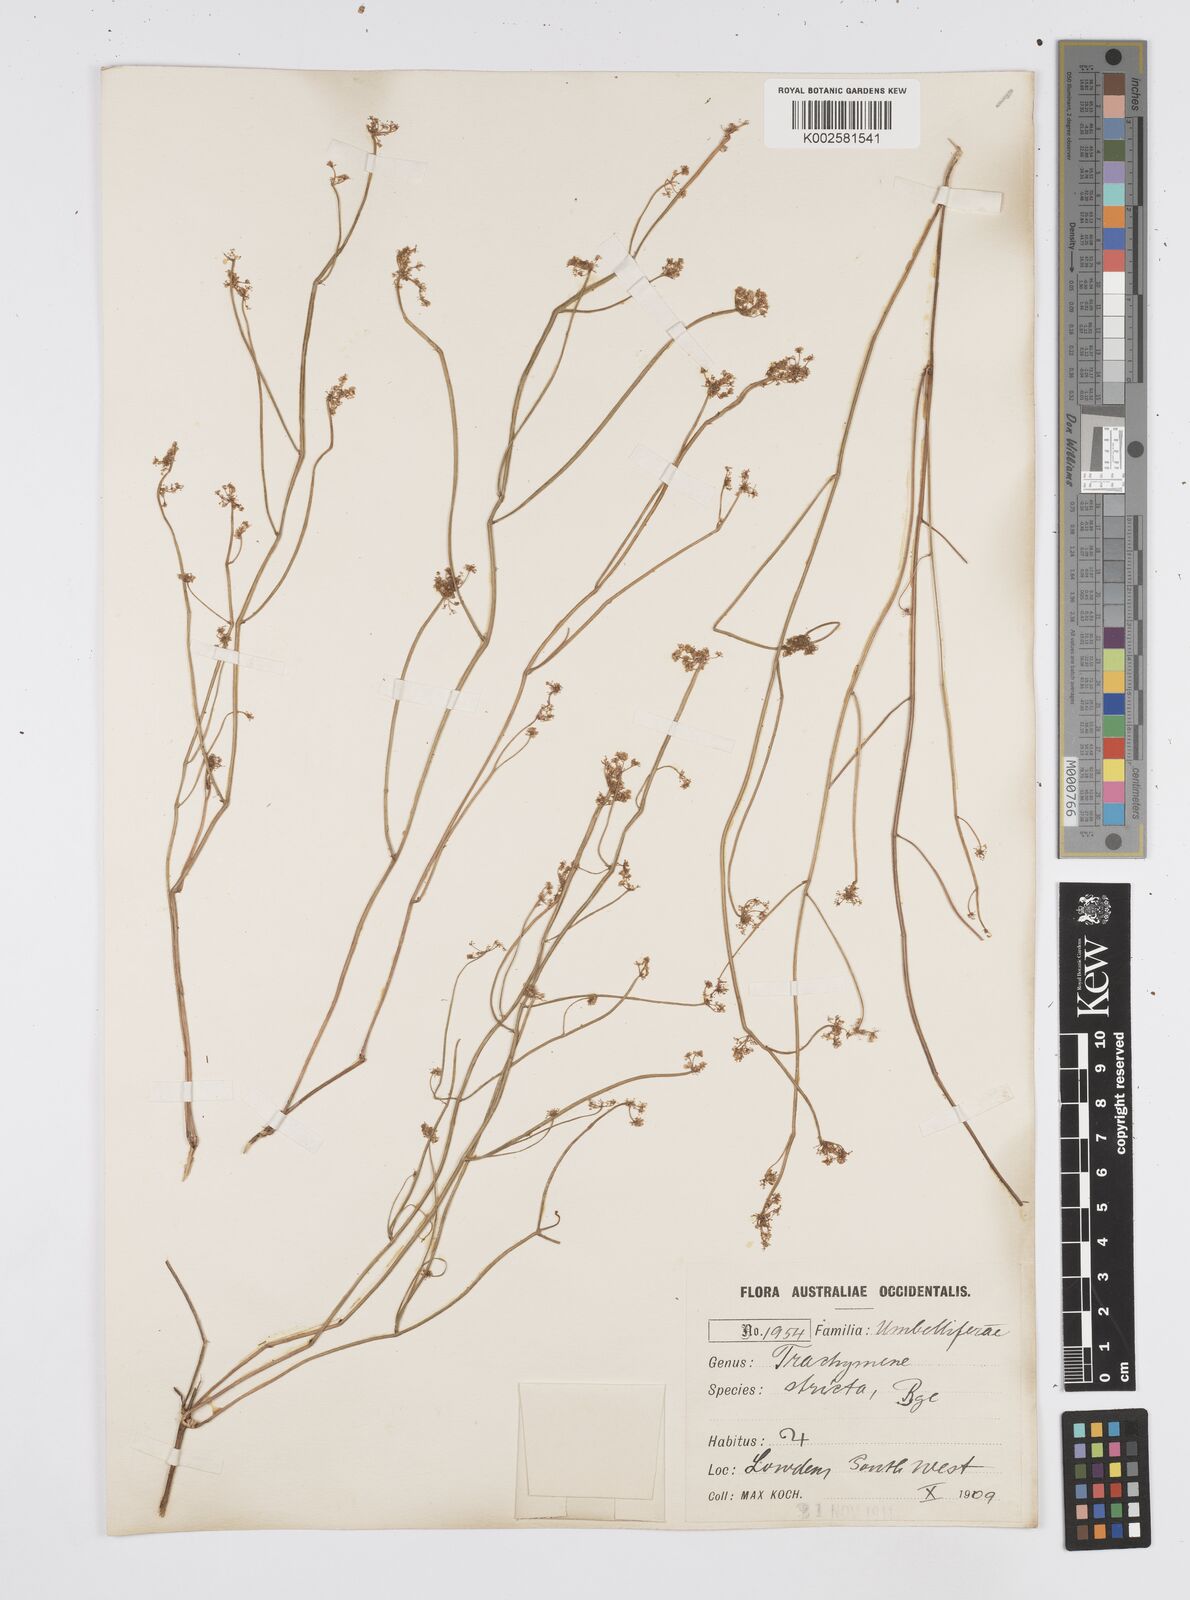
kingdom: Plantae
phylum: Tracheophyta
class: Magnoliopsida
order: Apiales
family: Apiaceae
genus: Centella
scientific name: Centella
